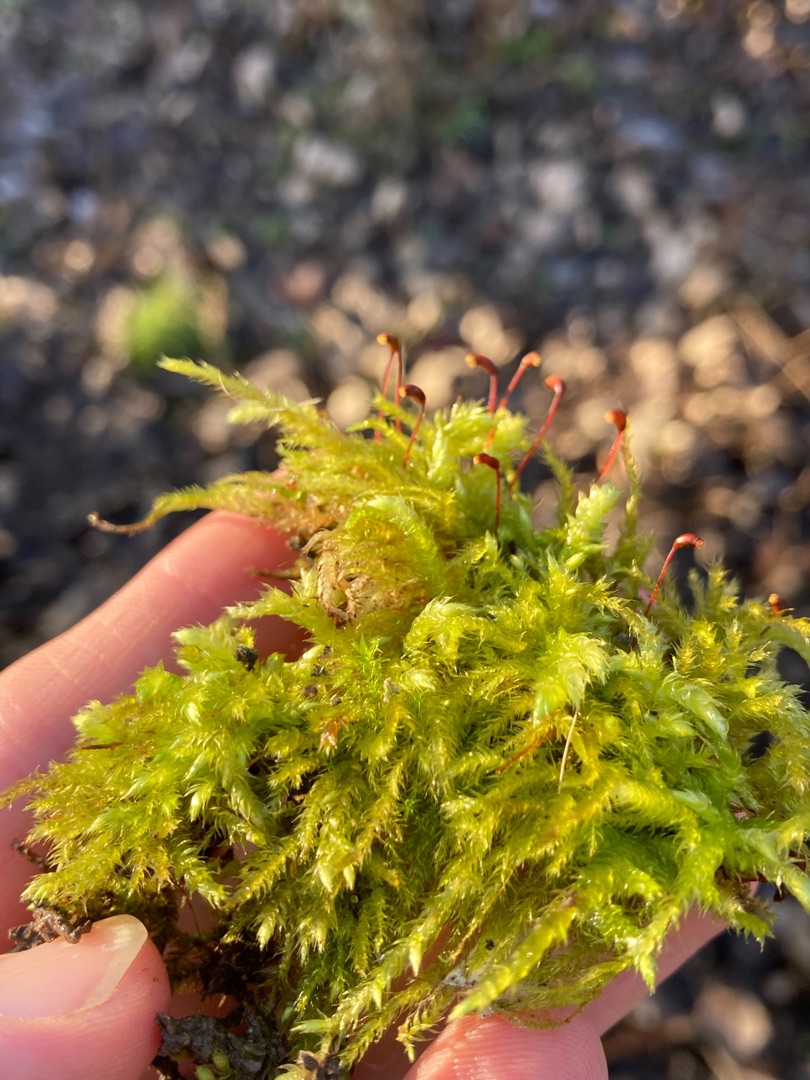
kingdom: Plantae
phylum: Bryophyta
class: Bryopsida
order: Hypnales
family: Brachytheciaceae
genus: Brachythecium
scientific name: Brachythecium rutabulum
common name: Almindelig kortkapsel
